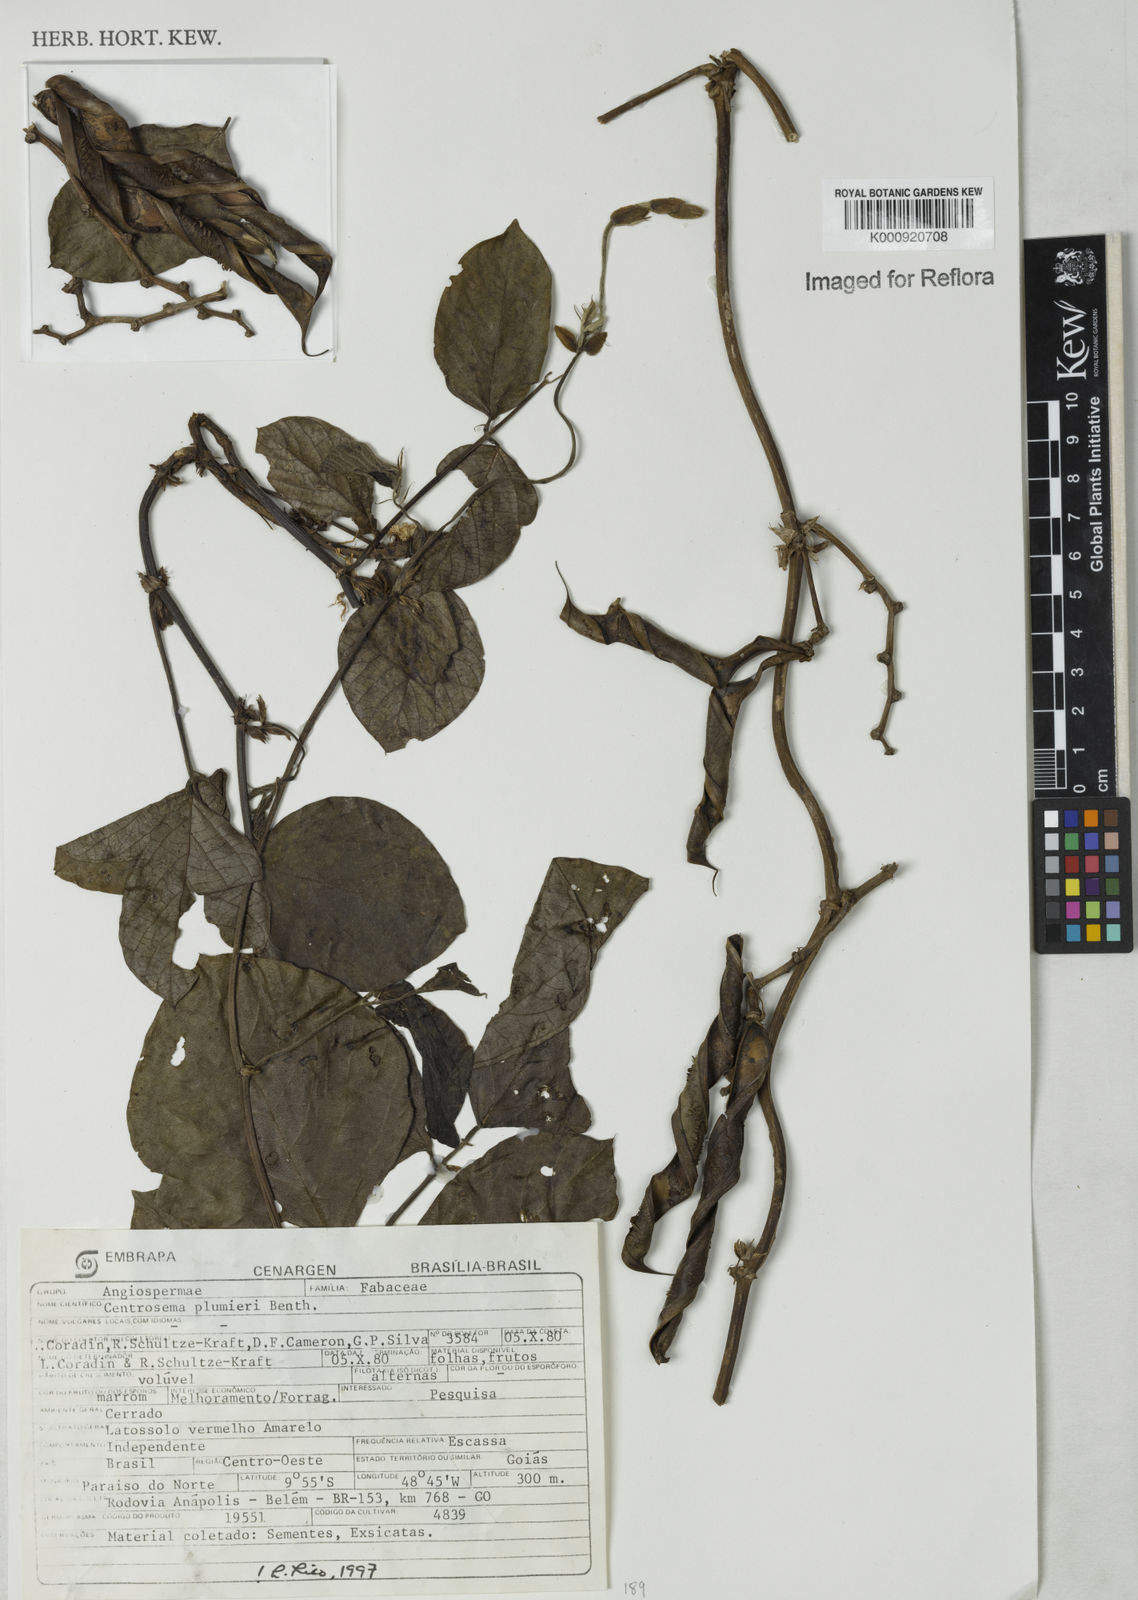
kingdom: Plantae
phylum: Tracheophyta
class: Magnoliopsida
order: Fabales
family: Fabaceae
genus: Centrosema
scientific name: Centrosema plumieri
